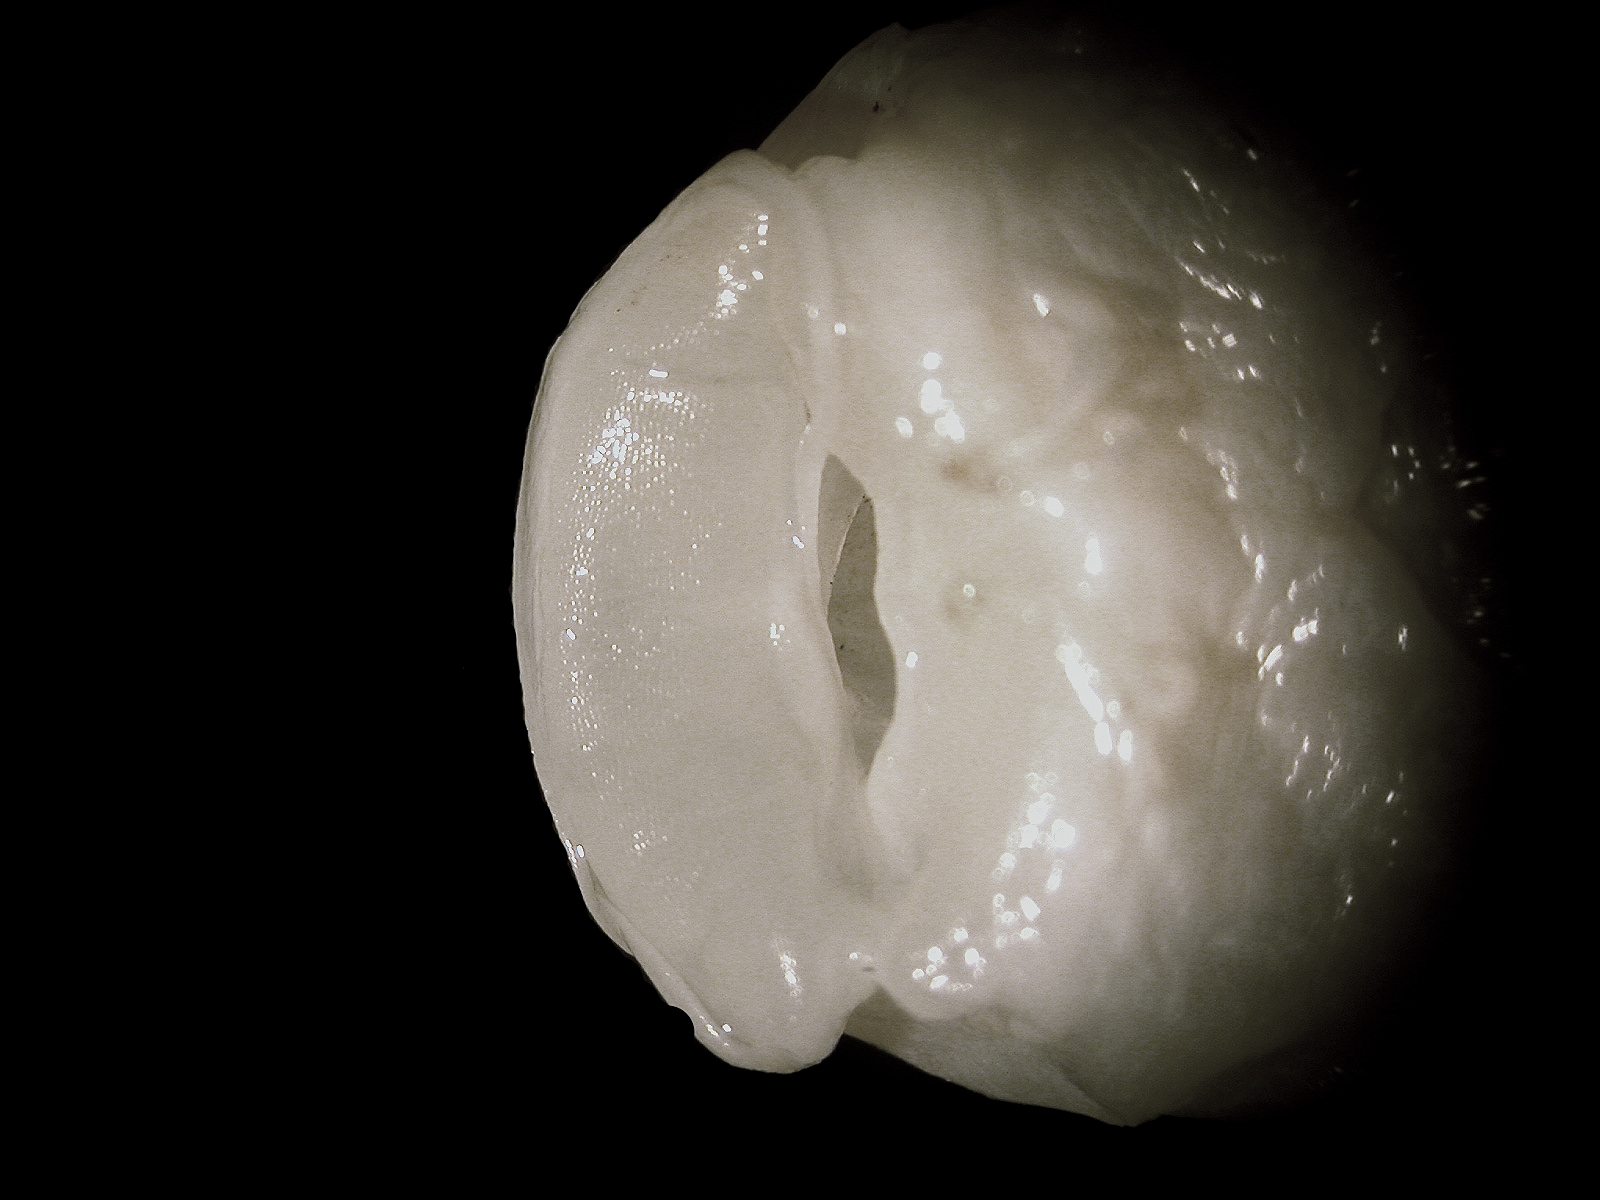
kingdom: Animalia
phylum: Chordata
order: Siluriformes
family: Ictaluridae
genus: Trogloglanis
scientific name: Trogloglanis pattersoni
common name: Toothless blindcat
